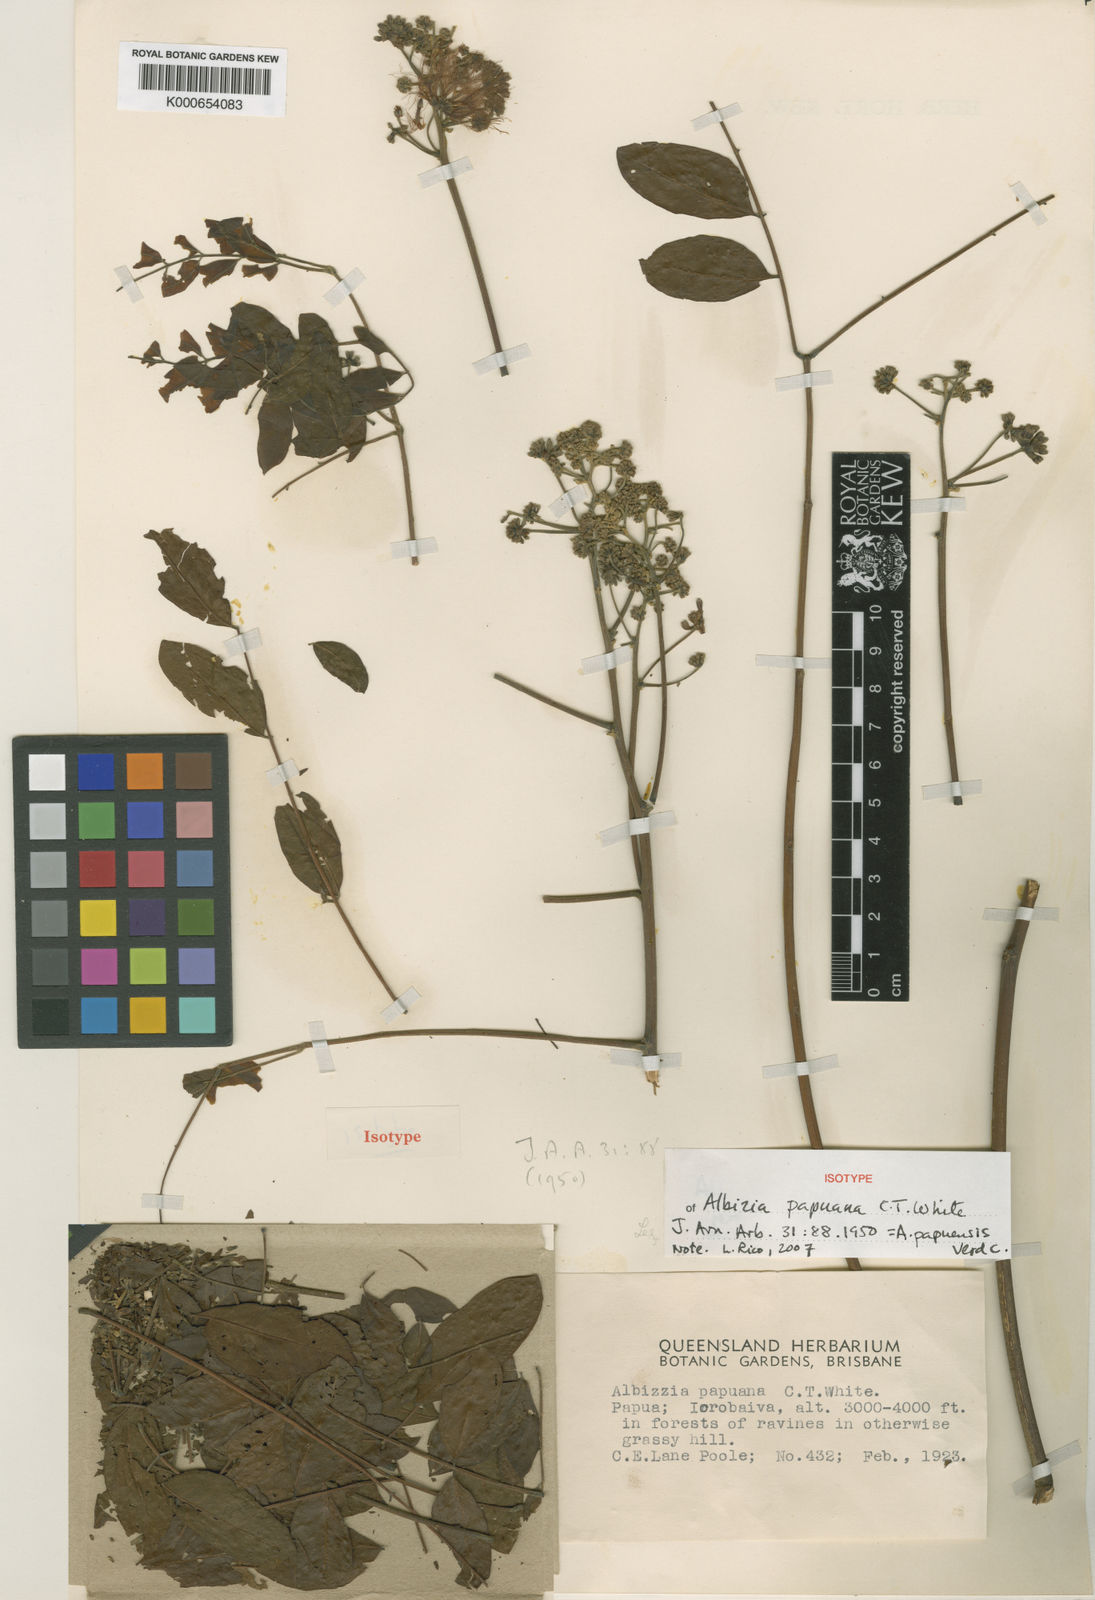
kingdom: Plantae
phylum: Tracheophyta
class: Magnoliopsida
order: Fabales
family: Fabaceae
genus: Albizia
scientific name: Albizia papuensis
